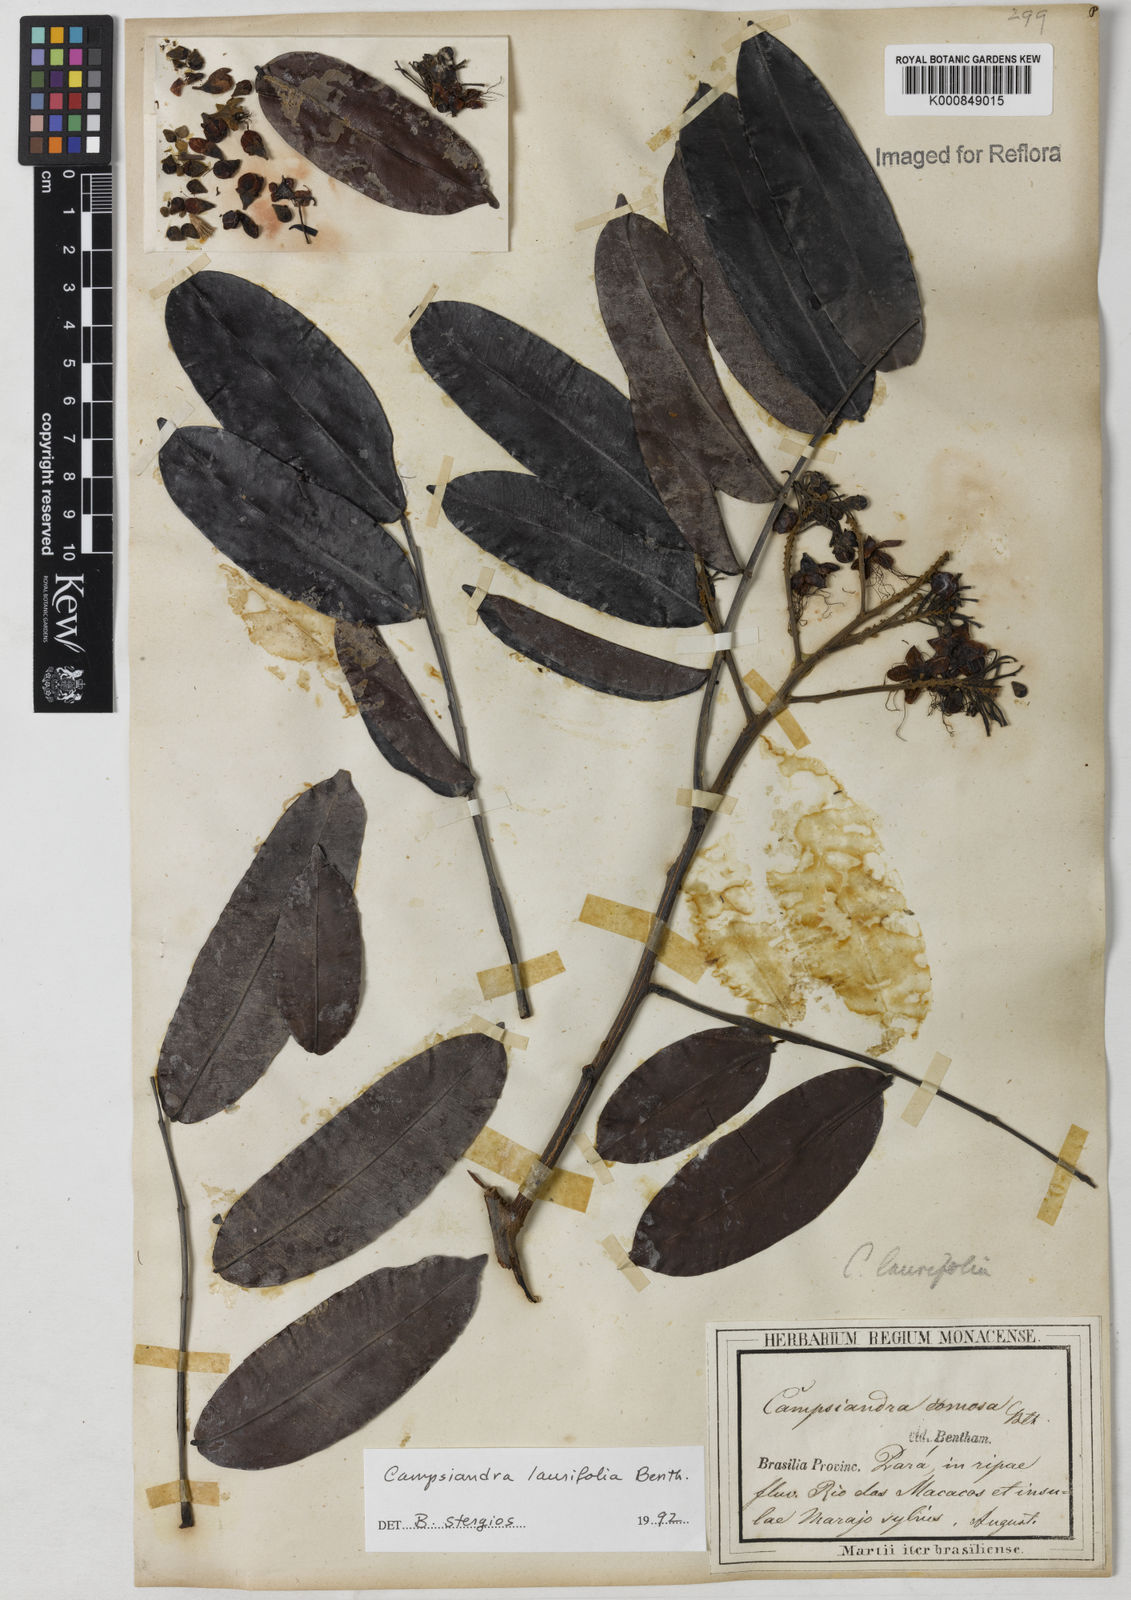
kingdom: Plantae
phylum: Tracheophyta
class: Magnoliopsida
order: Fabales
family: Fabaceae
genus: Campsiandra
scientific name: Campsiandra laurifolia
